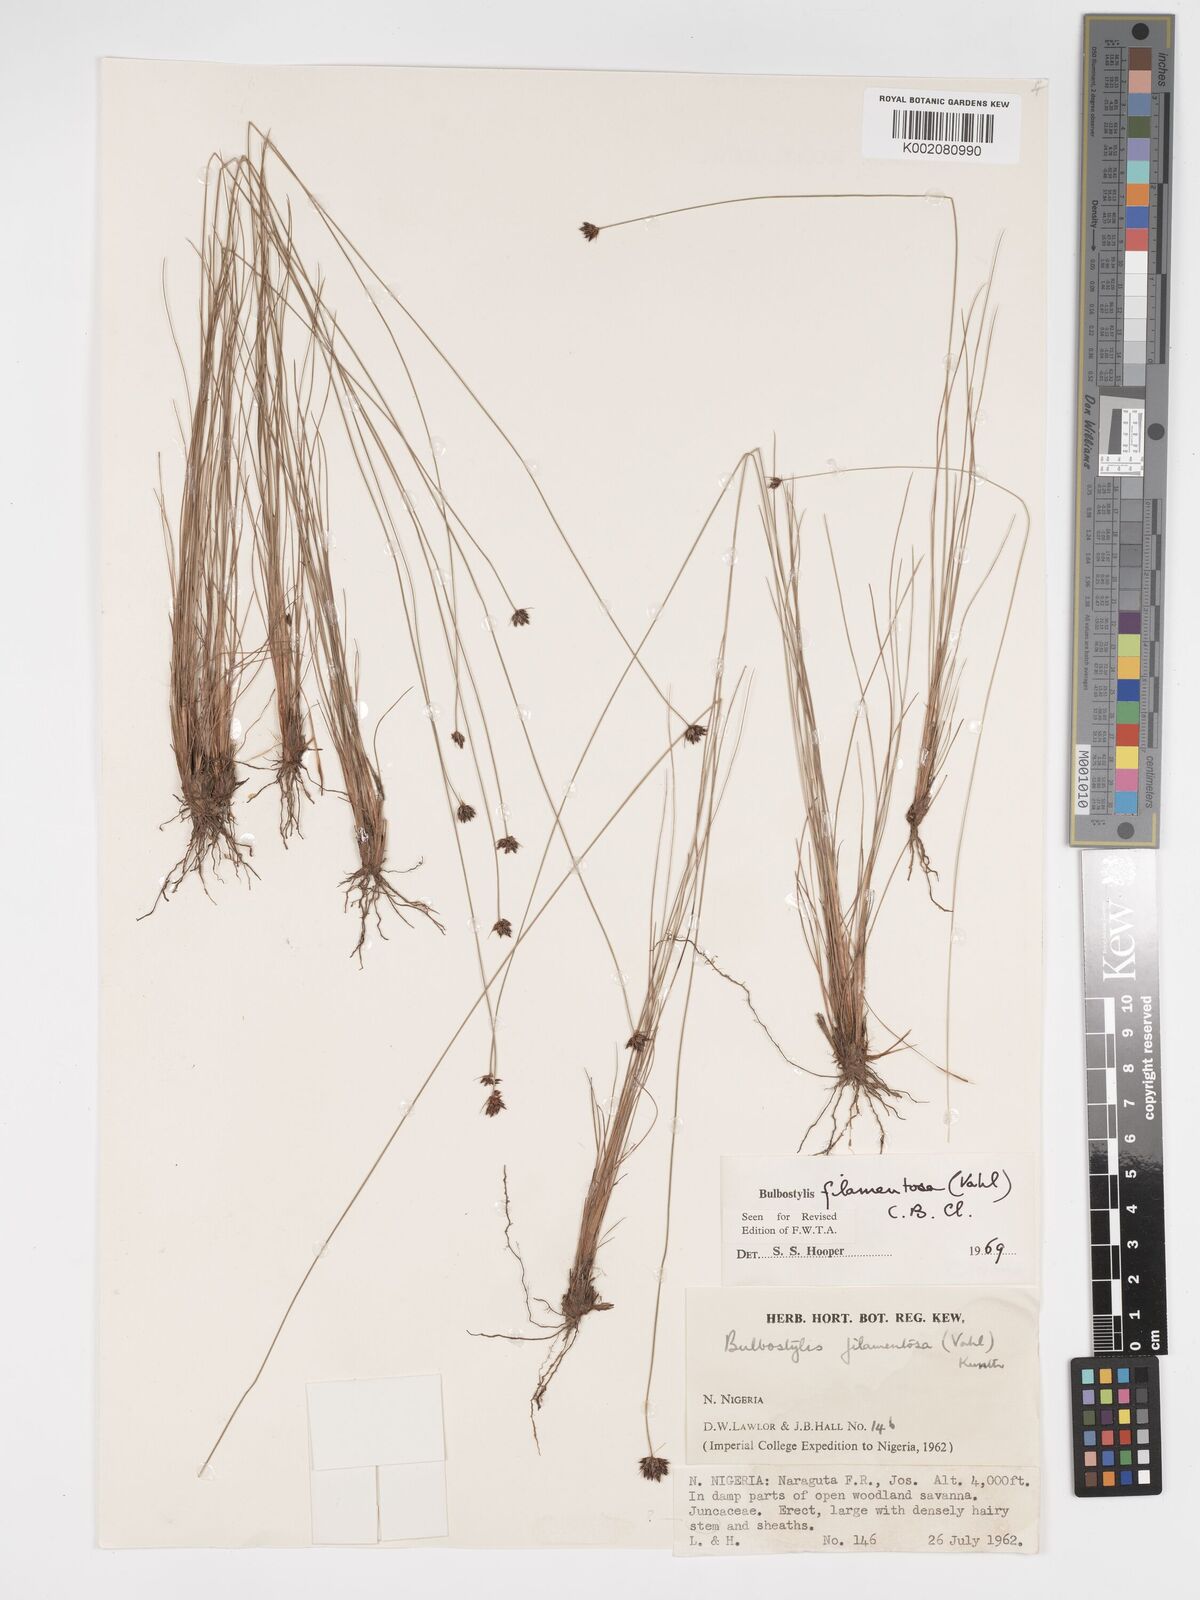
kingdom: Plantae
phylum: Tracheophyta
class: Liliopsida
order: Poales
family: Cyperaceae
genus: Bulbostylis
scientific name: Bulbostylis filamentosa
